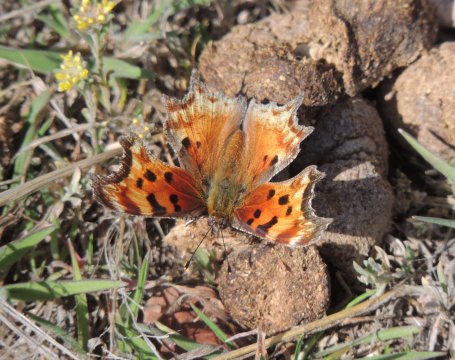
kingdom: Animalia
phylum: Arthropoda
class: Insecta
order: Lepidoptera
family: Nymphalidae
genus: Polygonia
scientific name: Polygonia gracilis
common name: Hoary Comma
